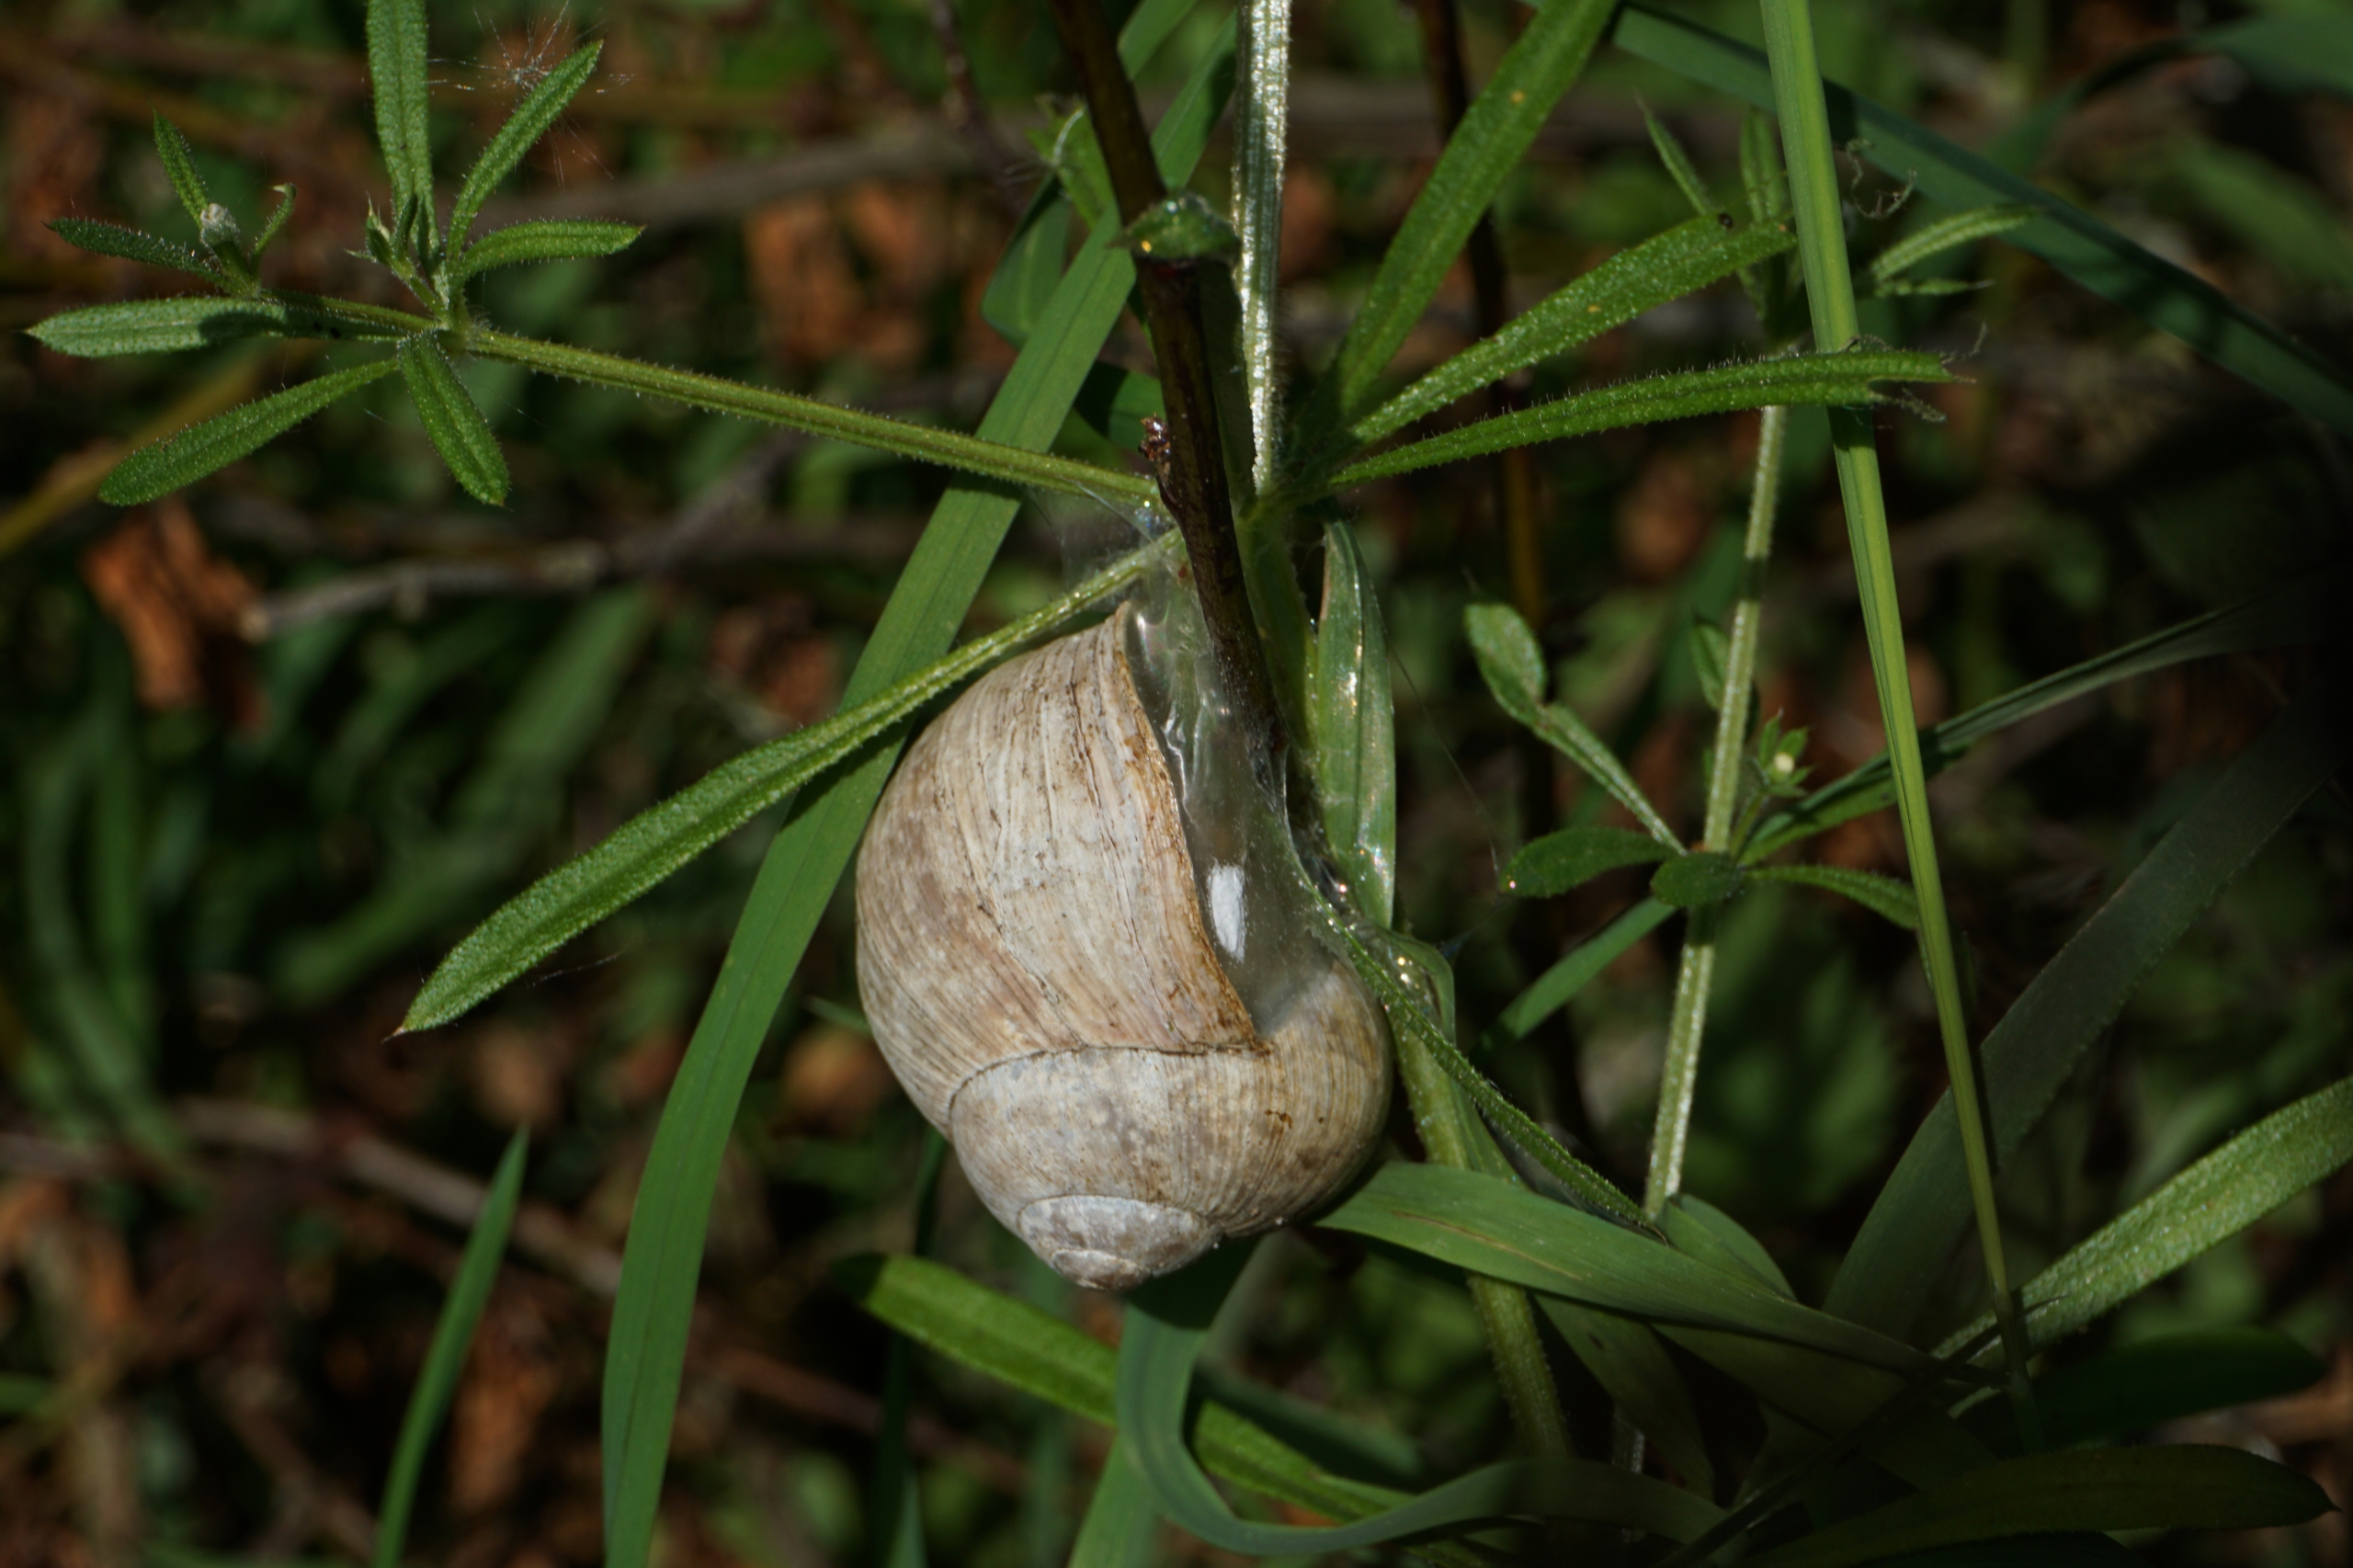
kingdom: Animalia
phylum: Mollusca
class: Gastropoda
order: Stylommatophora
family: Helicidae
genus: Helix
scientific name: Helix pomatia
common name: Vinbjergsnegl
